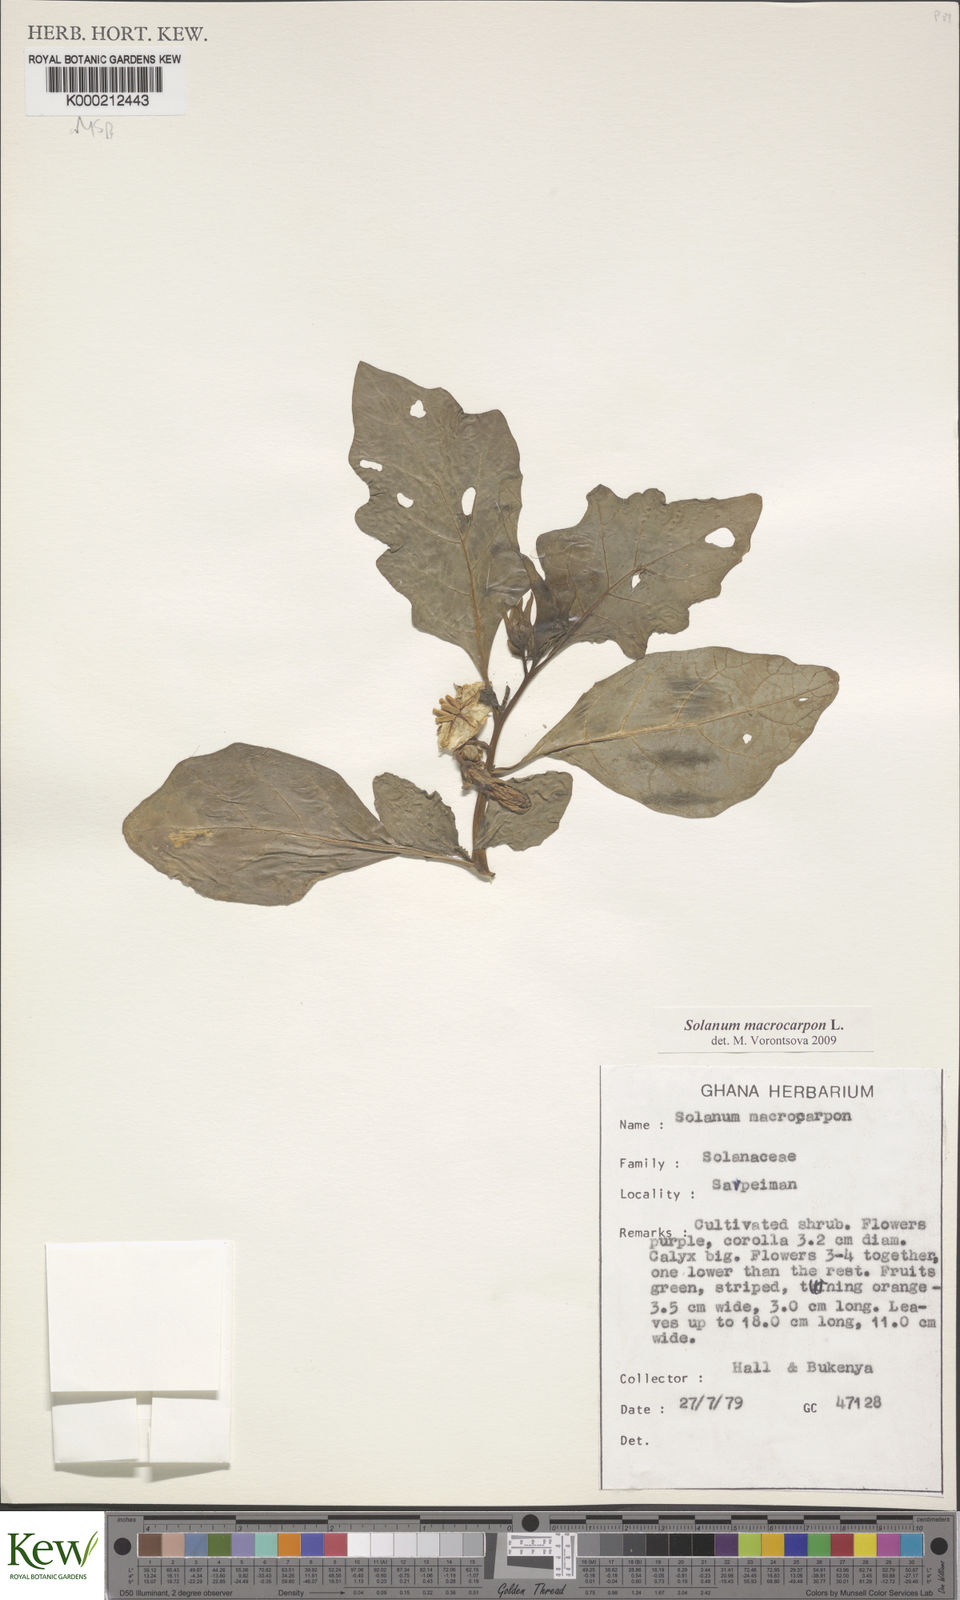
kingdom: Plantae
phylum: Tracheophyta
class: Magnoliopsida
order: Solanales
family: Solanaceae
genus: Solanum
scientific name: Solanum macrocarpon
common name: African eggplant
